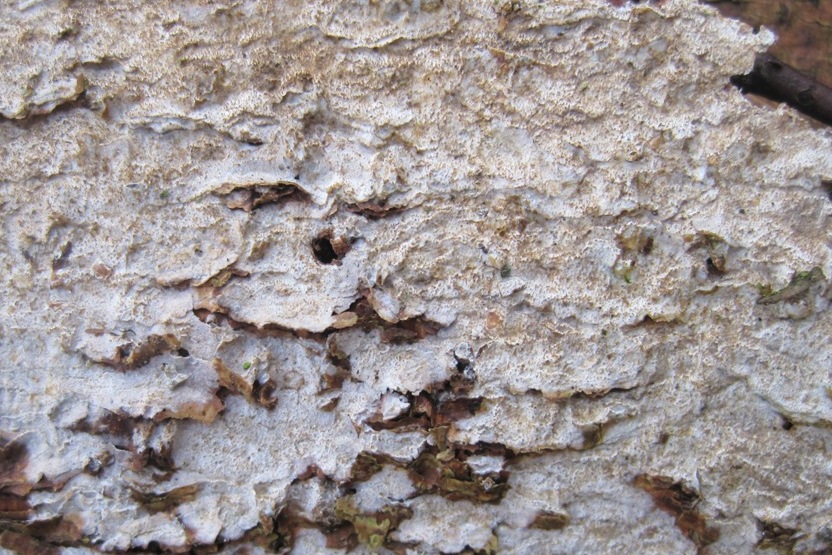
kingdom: Fungi
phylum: Basidiomycota
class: Agaricomycetes
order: Hymenochaetales
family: Rickenellaceae
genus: Resinicium
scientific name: Resinicium bicolor
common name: almindelig vokstand
